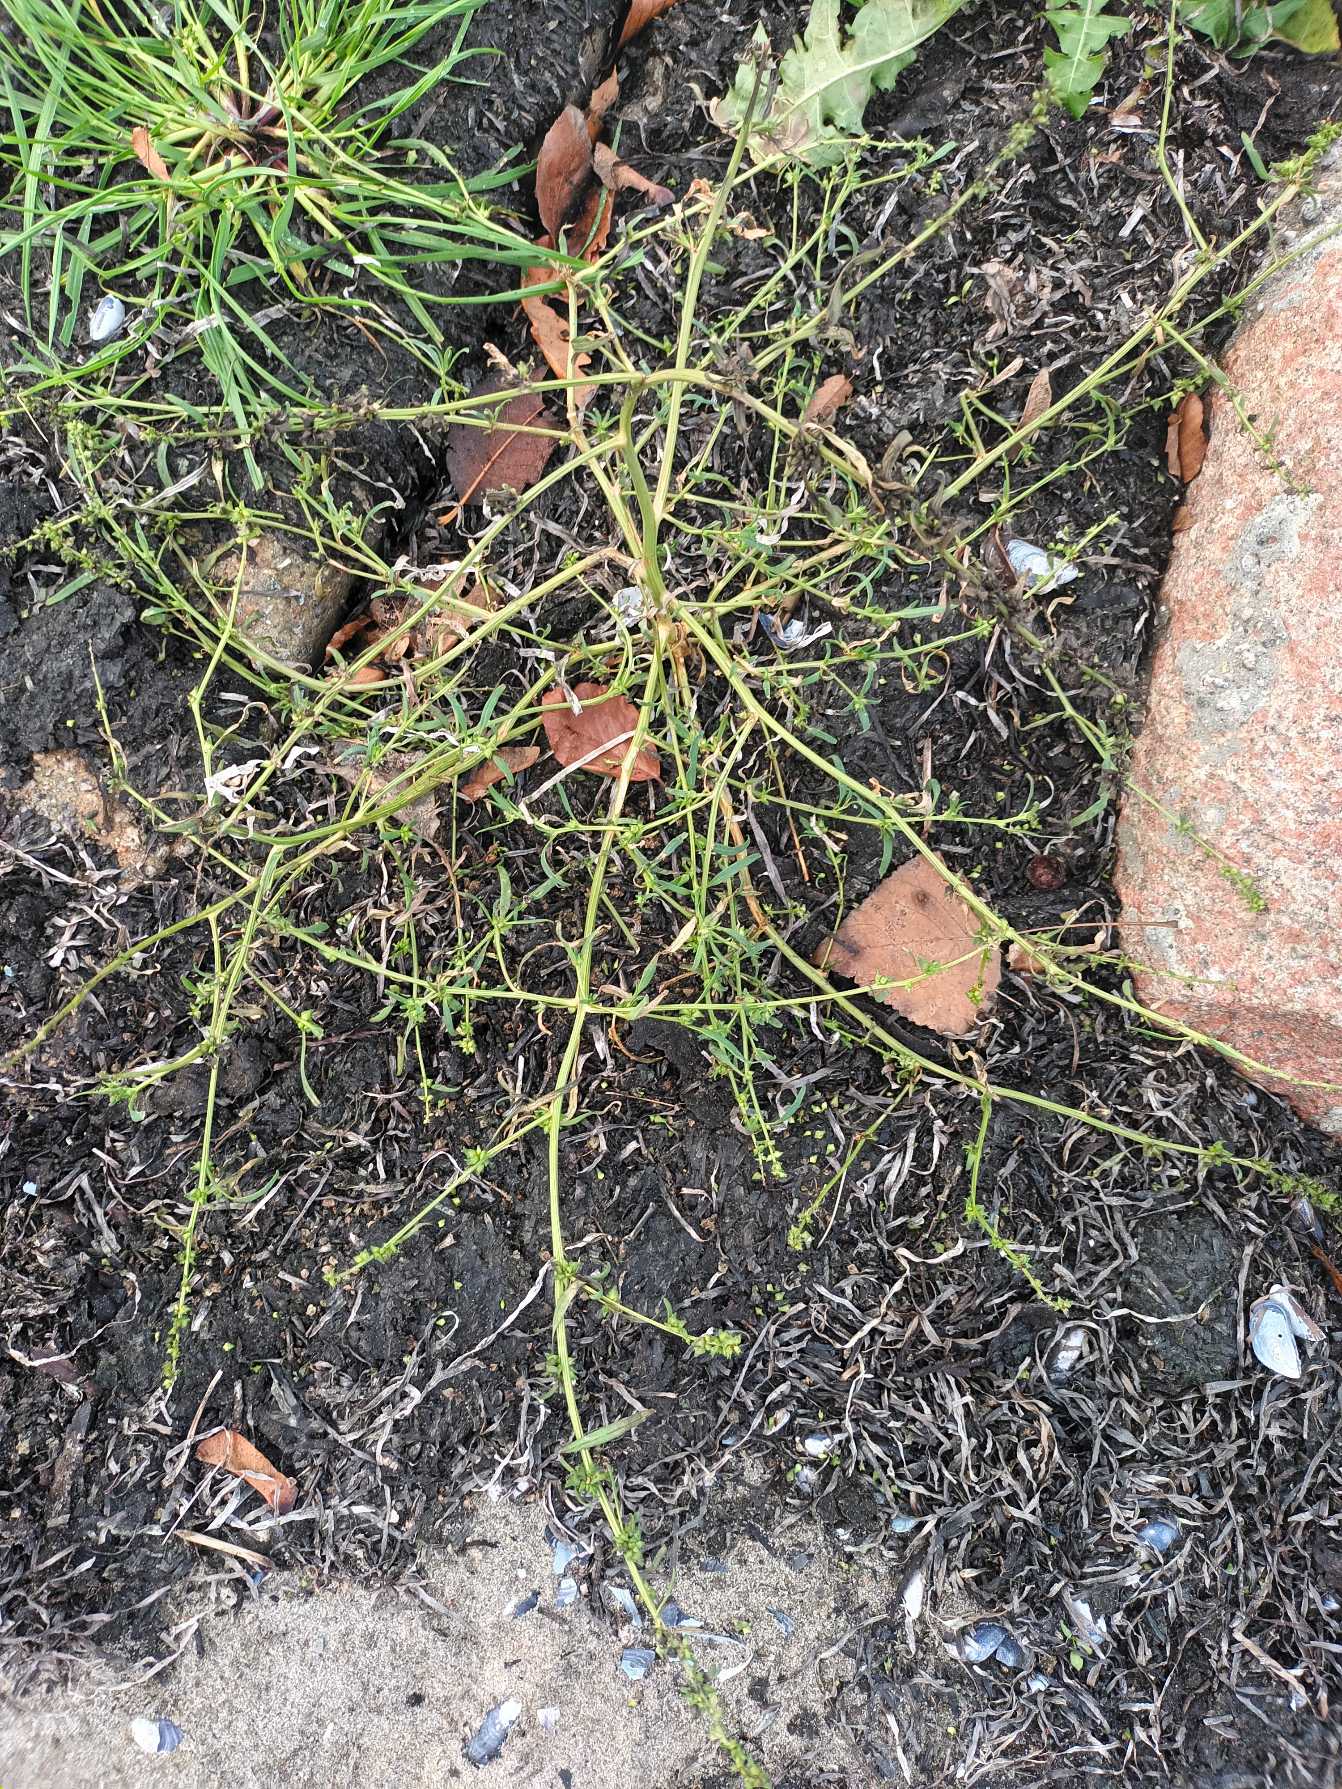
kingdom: Plantae
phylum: Tracheophyta
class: Magnoliopsida
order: Caryophyllales
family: Amaranthaceae
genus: Atriplex
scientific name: Atriplex littoralis
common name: Strand-mælde
